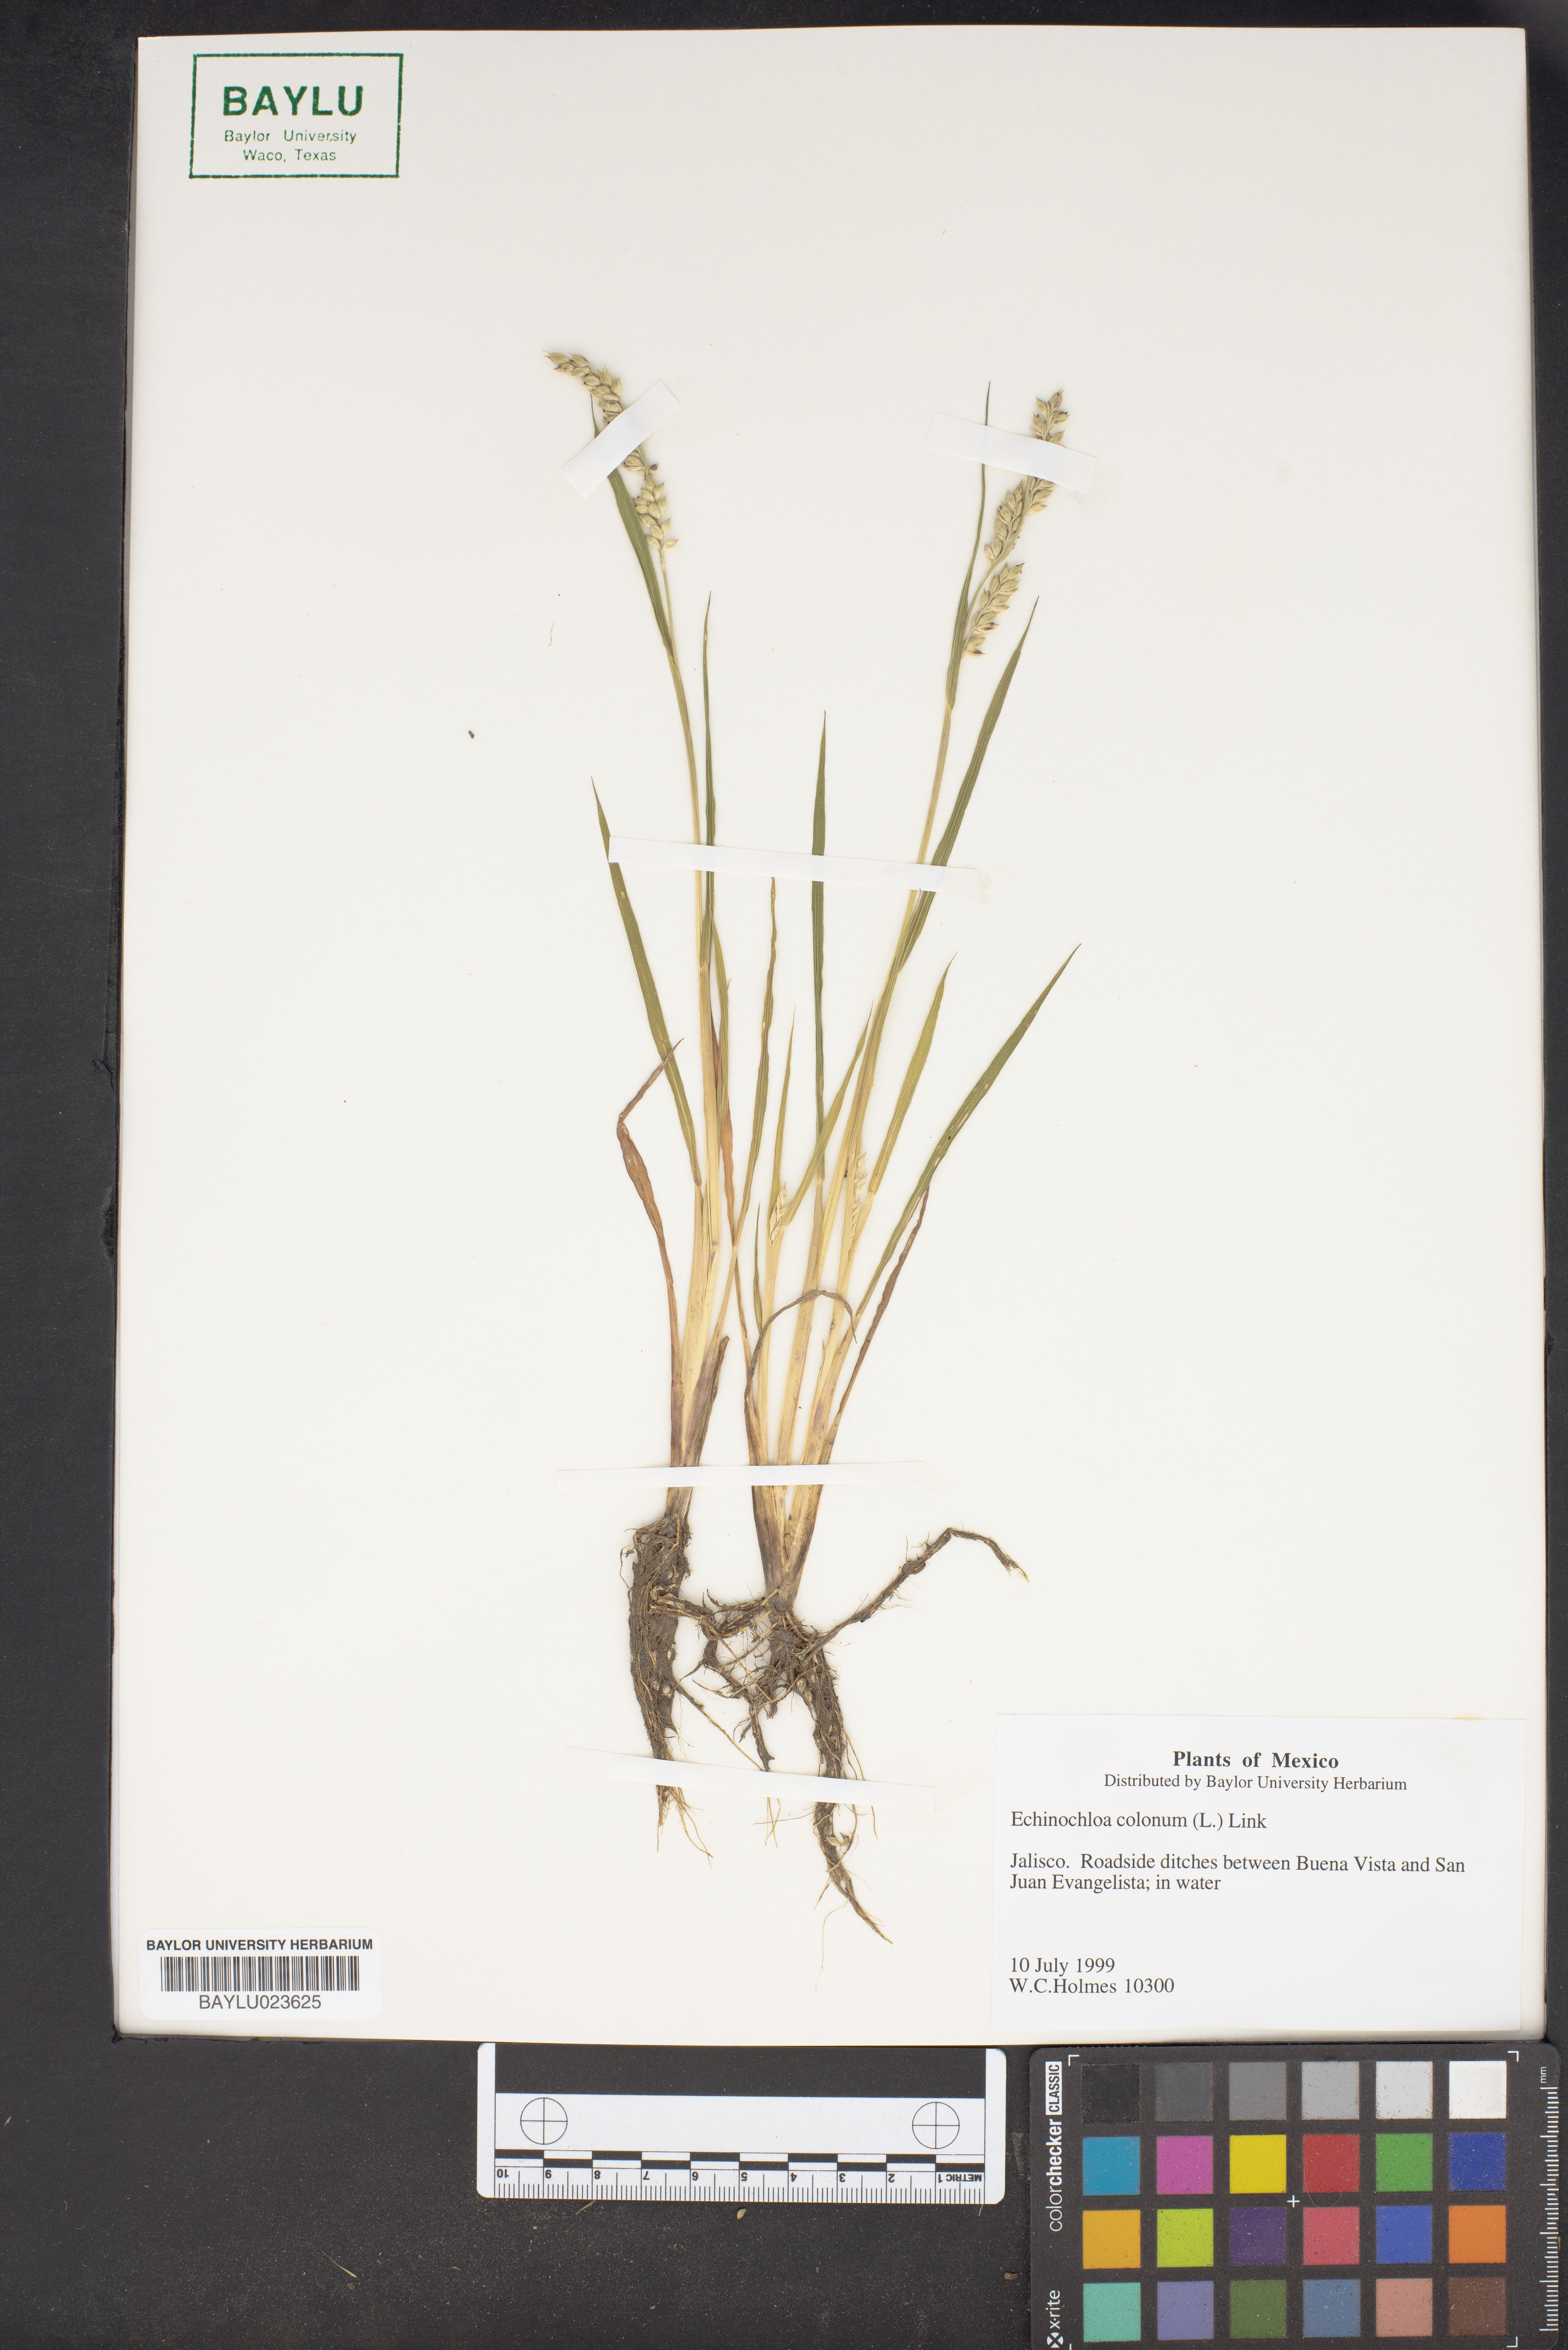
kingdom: Plantae
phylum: Tracheophyta
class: Liliopsida
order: Poales
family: Poaceae
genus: Echinochloa
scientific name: Echinochloa colonum
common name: Jungle rice
